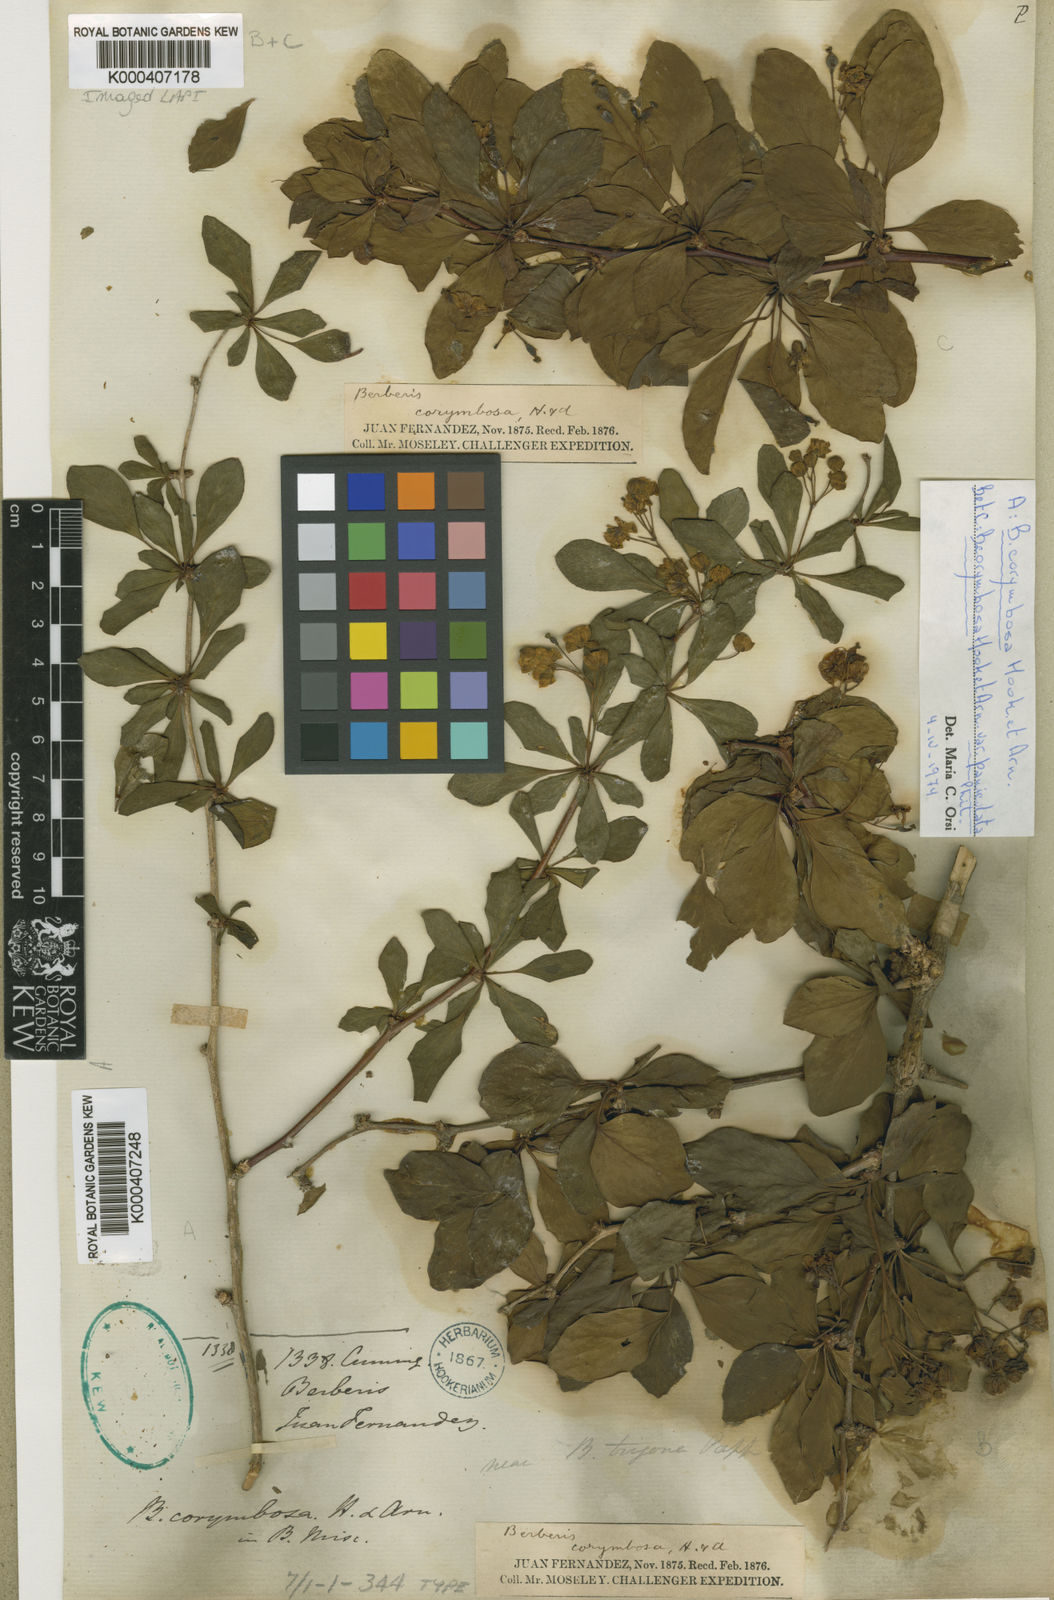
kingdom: Plantae
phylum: Tracheophyta
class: Magnoliopsida
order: Ranunculales
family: Berberidaceae
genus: Berberis
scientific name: Berberis corymbosa
